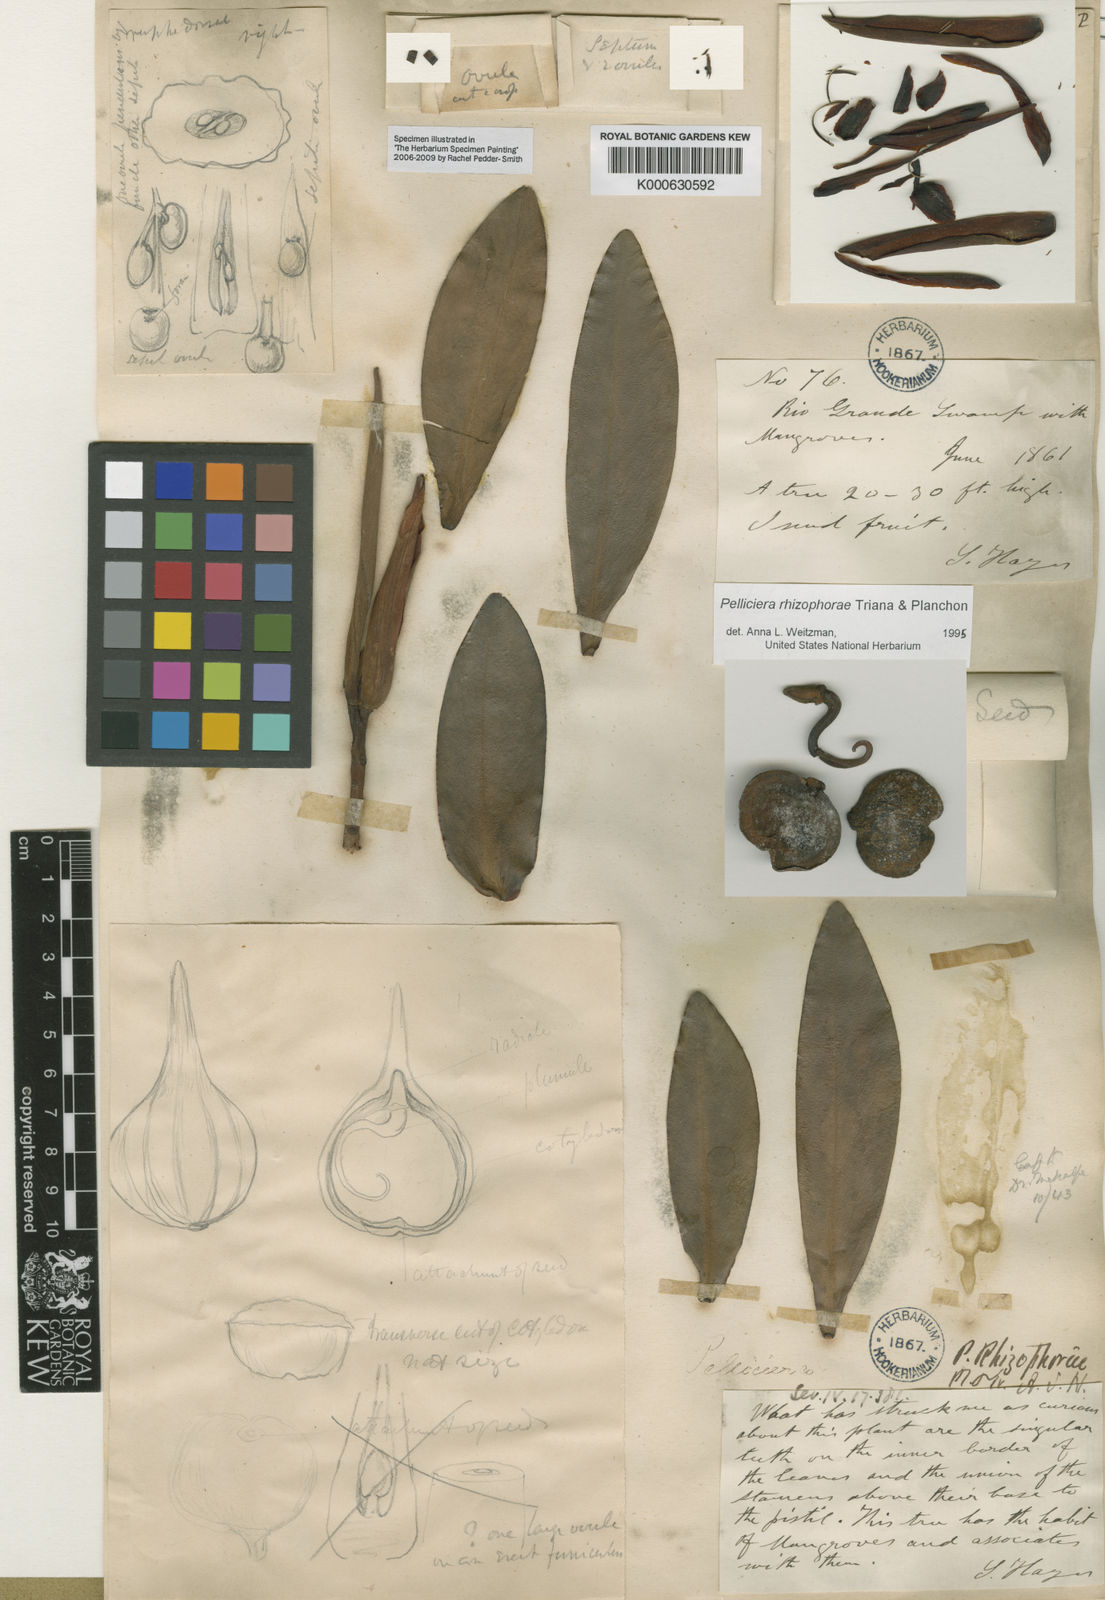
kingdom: Plantae
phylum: Tracheophyta
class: Magnoliopsida
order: Ericales
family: Tetrameristaceae
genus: Pelliciera
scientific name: Pelliciera rhizophorae
